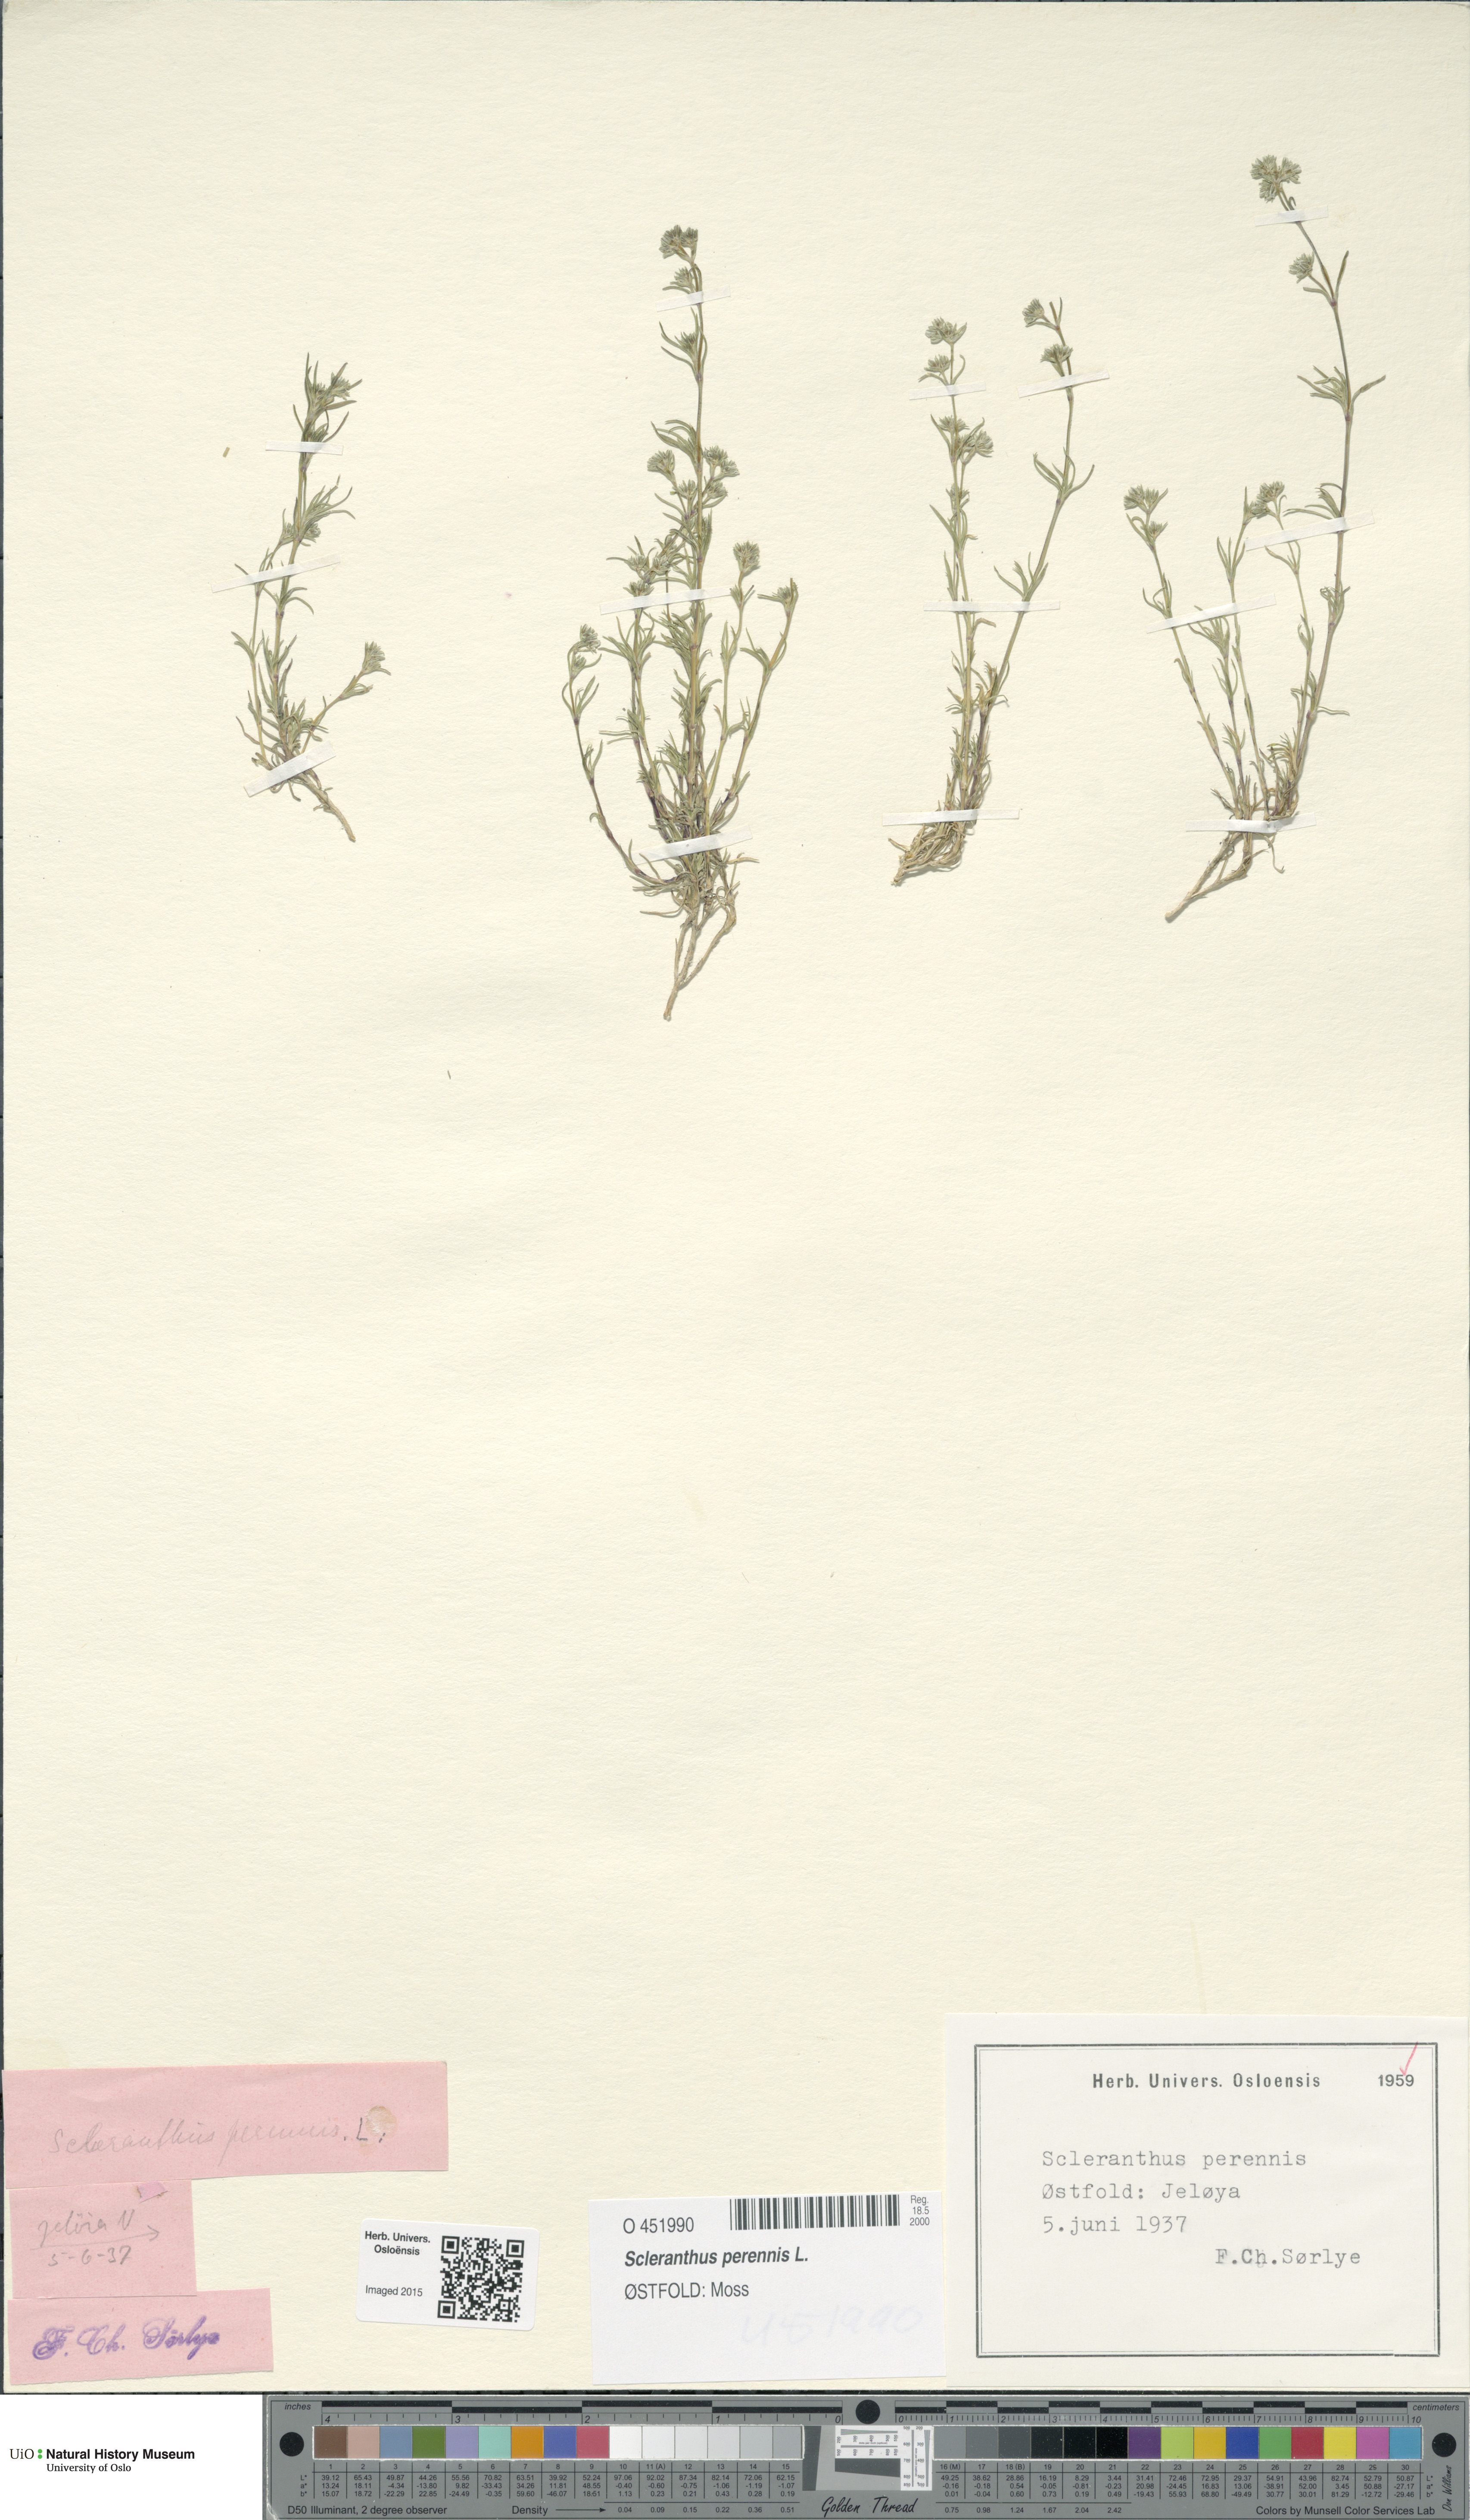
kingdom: Plantae
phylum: Tracheophyta
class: Magnoliopsida
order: Caryophyllales
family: Caryophyllaceae
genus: Scleranthus
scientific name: Scleranthus perennis
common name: Perennial knawel
